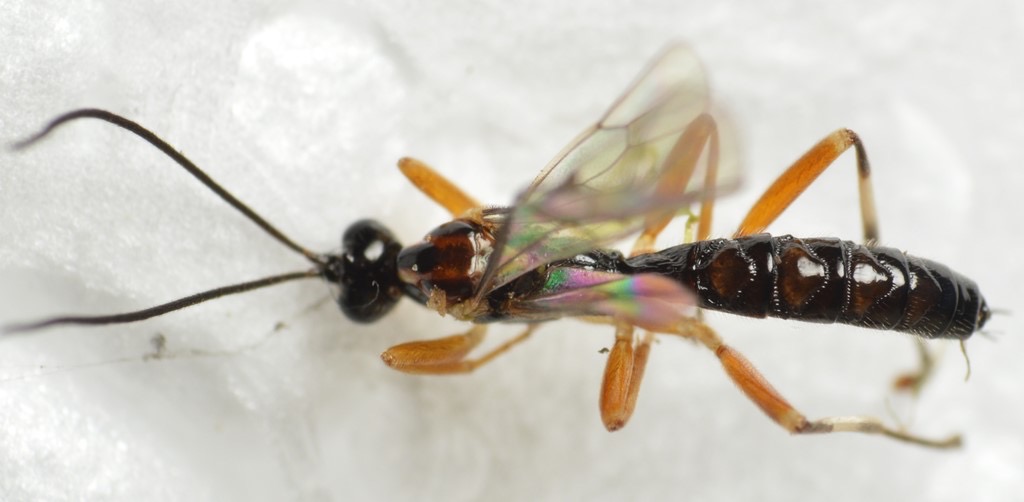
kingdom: Animalia
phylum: Arthropoda
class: Insecta
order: Hymenoptera
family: Ichneumonidae
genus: Zatypota
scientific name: Zatypota albicoxa
